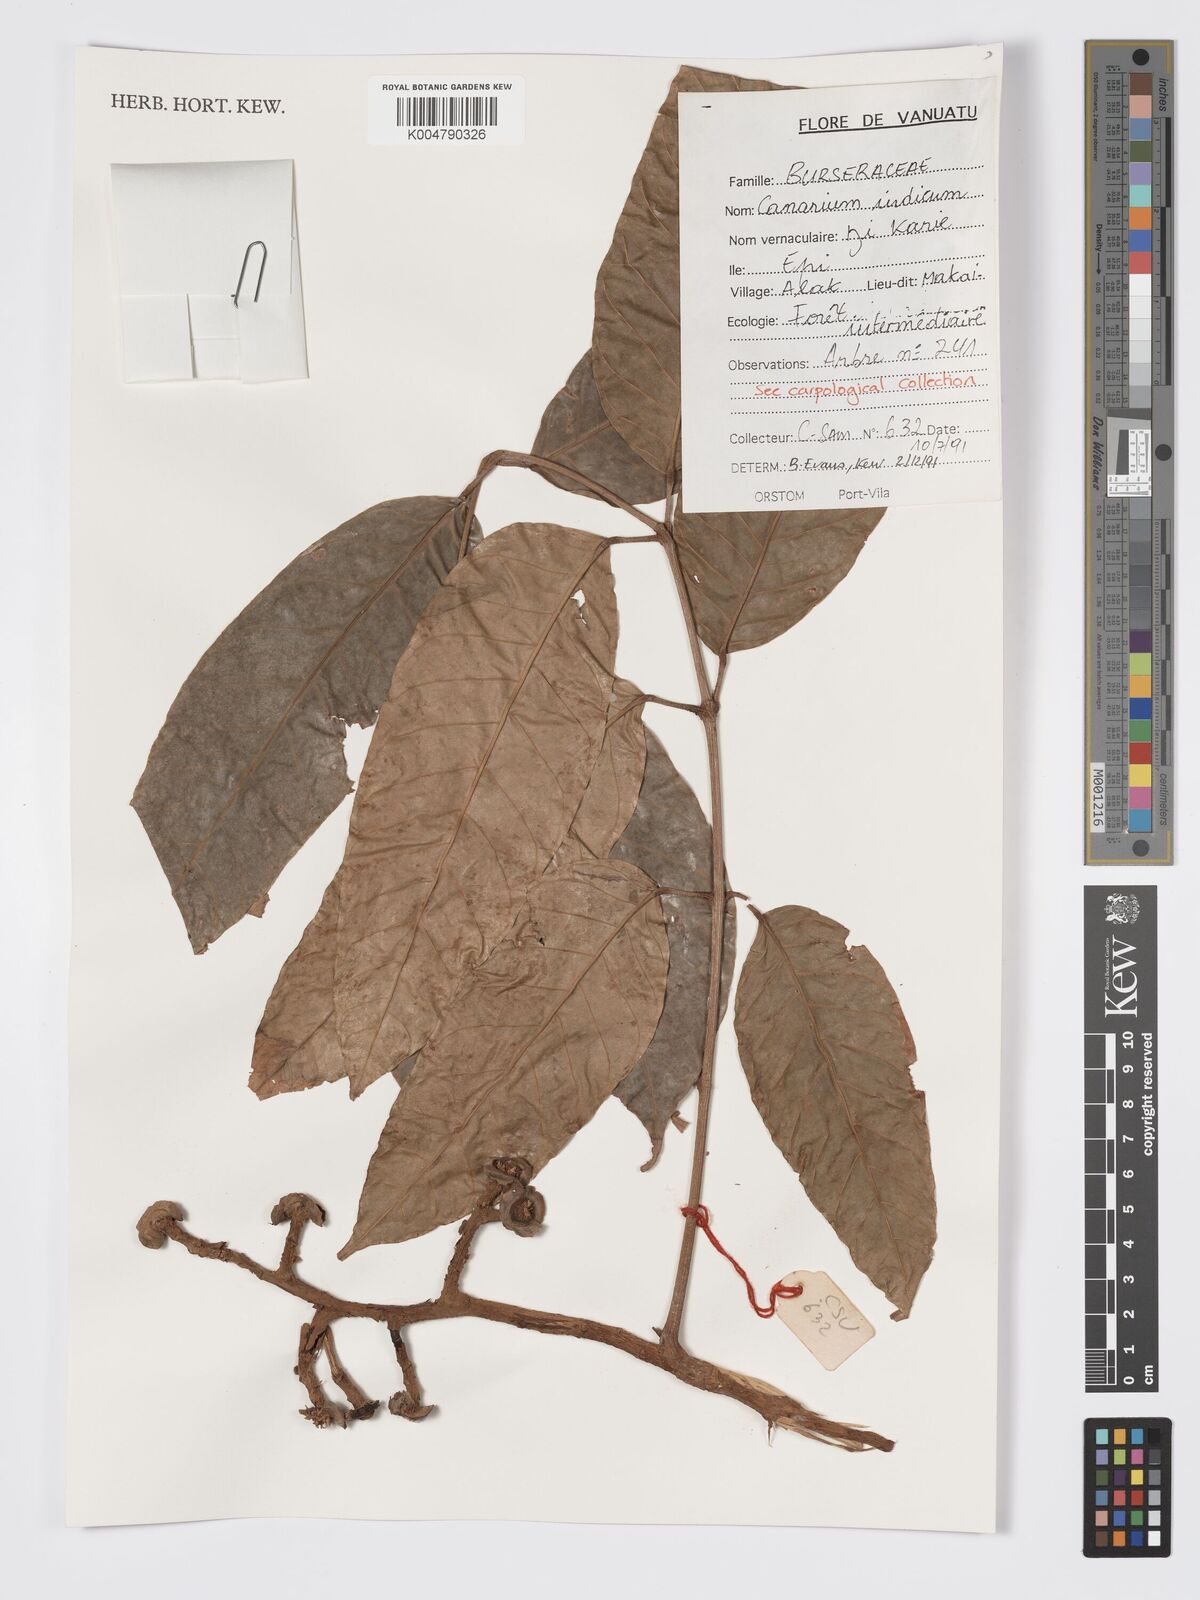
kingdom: Plantae
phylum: Tracheophyta
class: Magnoliopsida
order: Sapindales
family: Burseraceae
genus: Canarium
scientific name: Canarium indicum
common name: Canarium-nut
